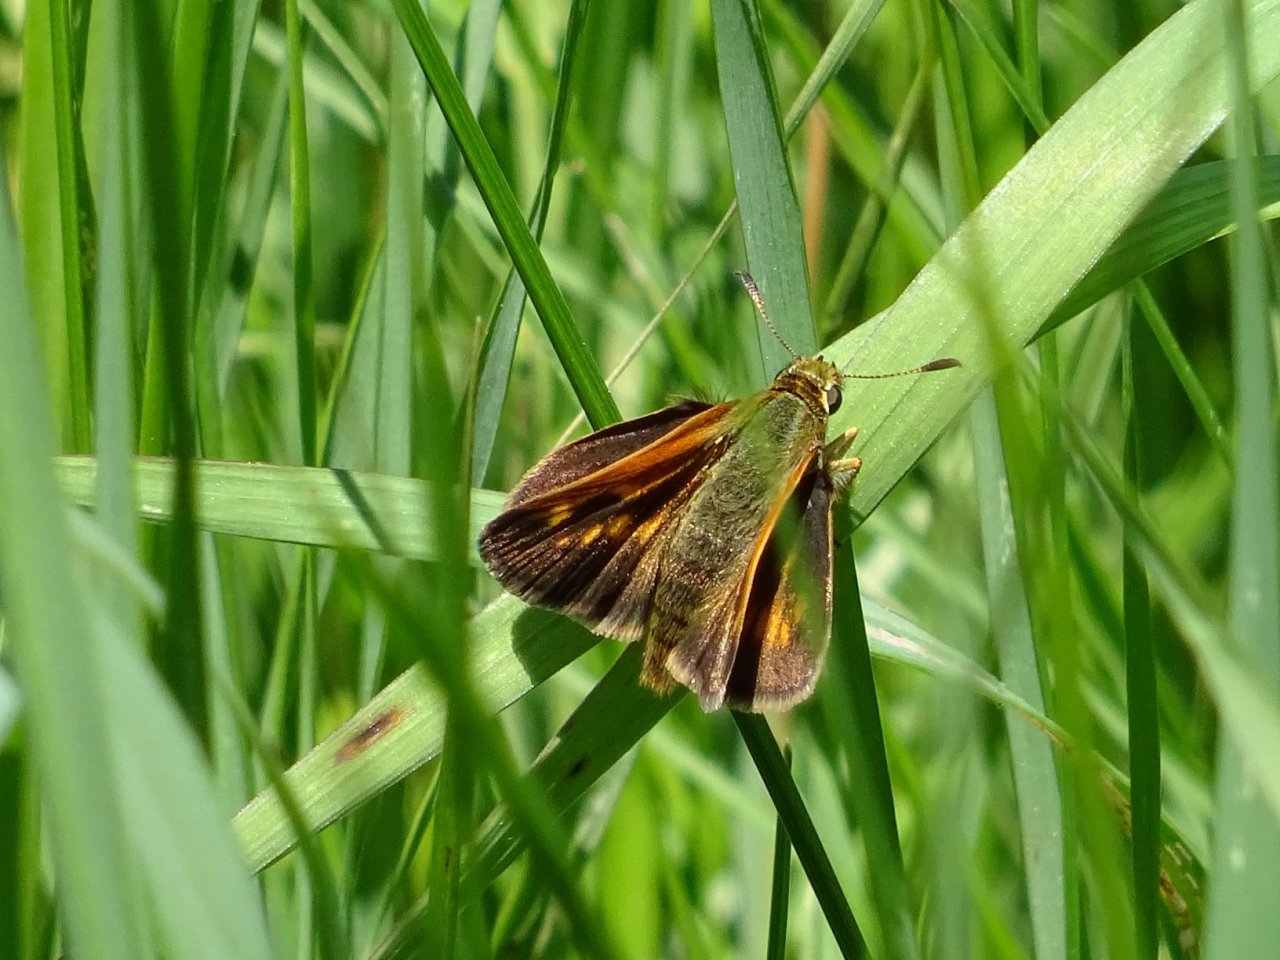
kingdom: Animalia
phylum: Arthropoda
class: Insecta
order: Lepidoptera
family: Hesperiidae
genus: Polites
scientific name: Polites
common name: Long Dash Skipper
